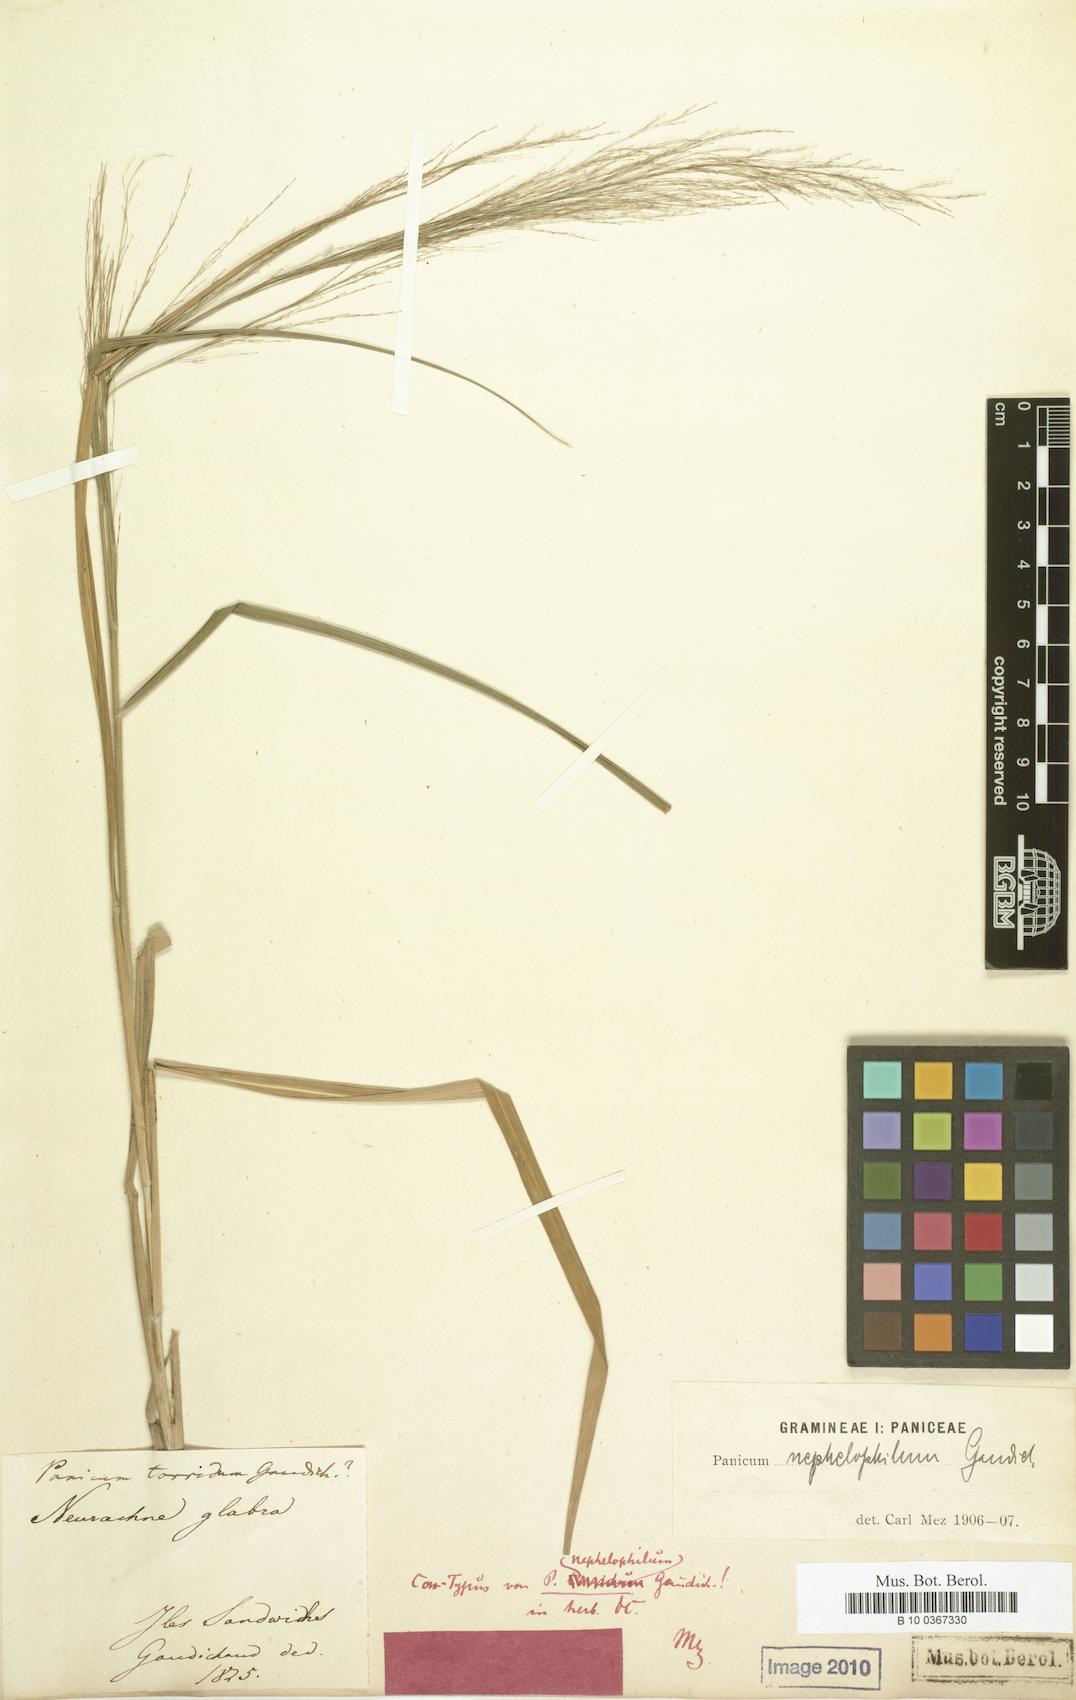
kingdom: Plantae
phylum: Tracheophyta
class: Liliopsida
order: Poales
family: Poaceae
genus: Panicum
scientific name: Panicum nephelophilum
